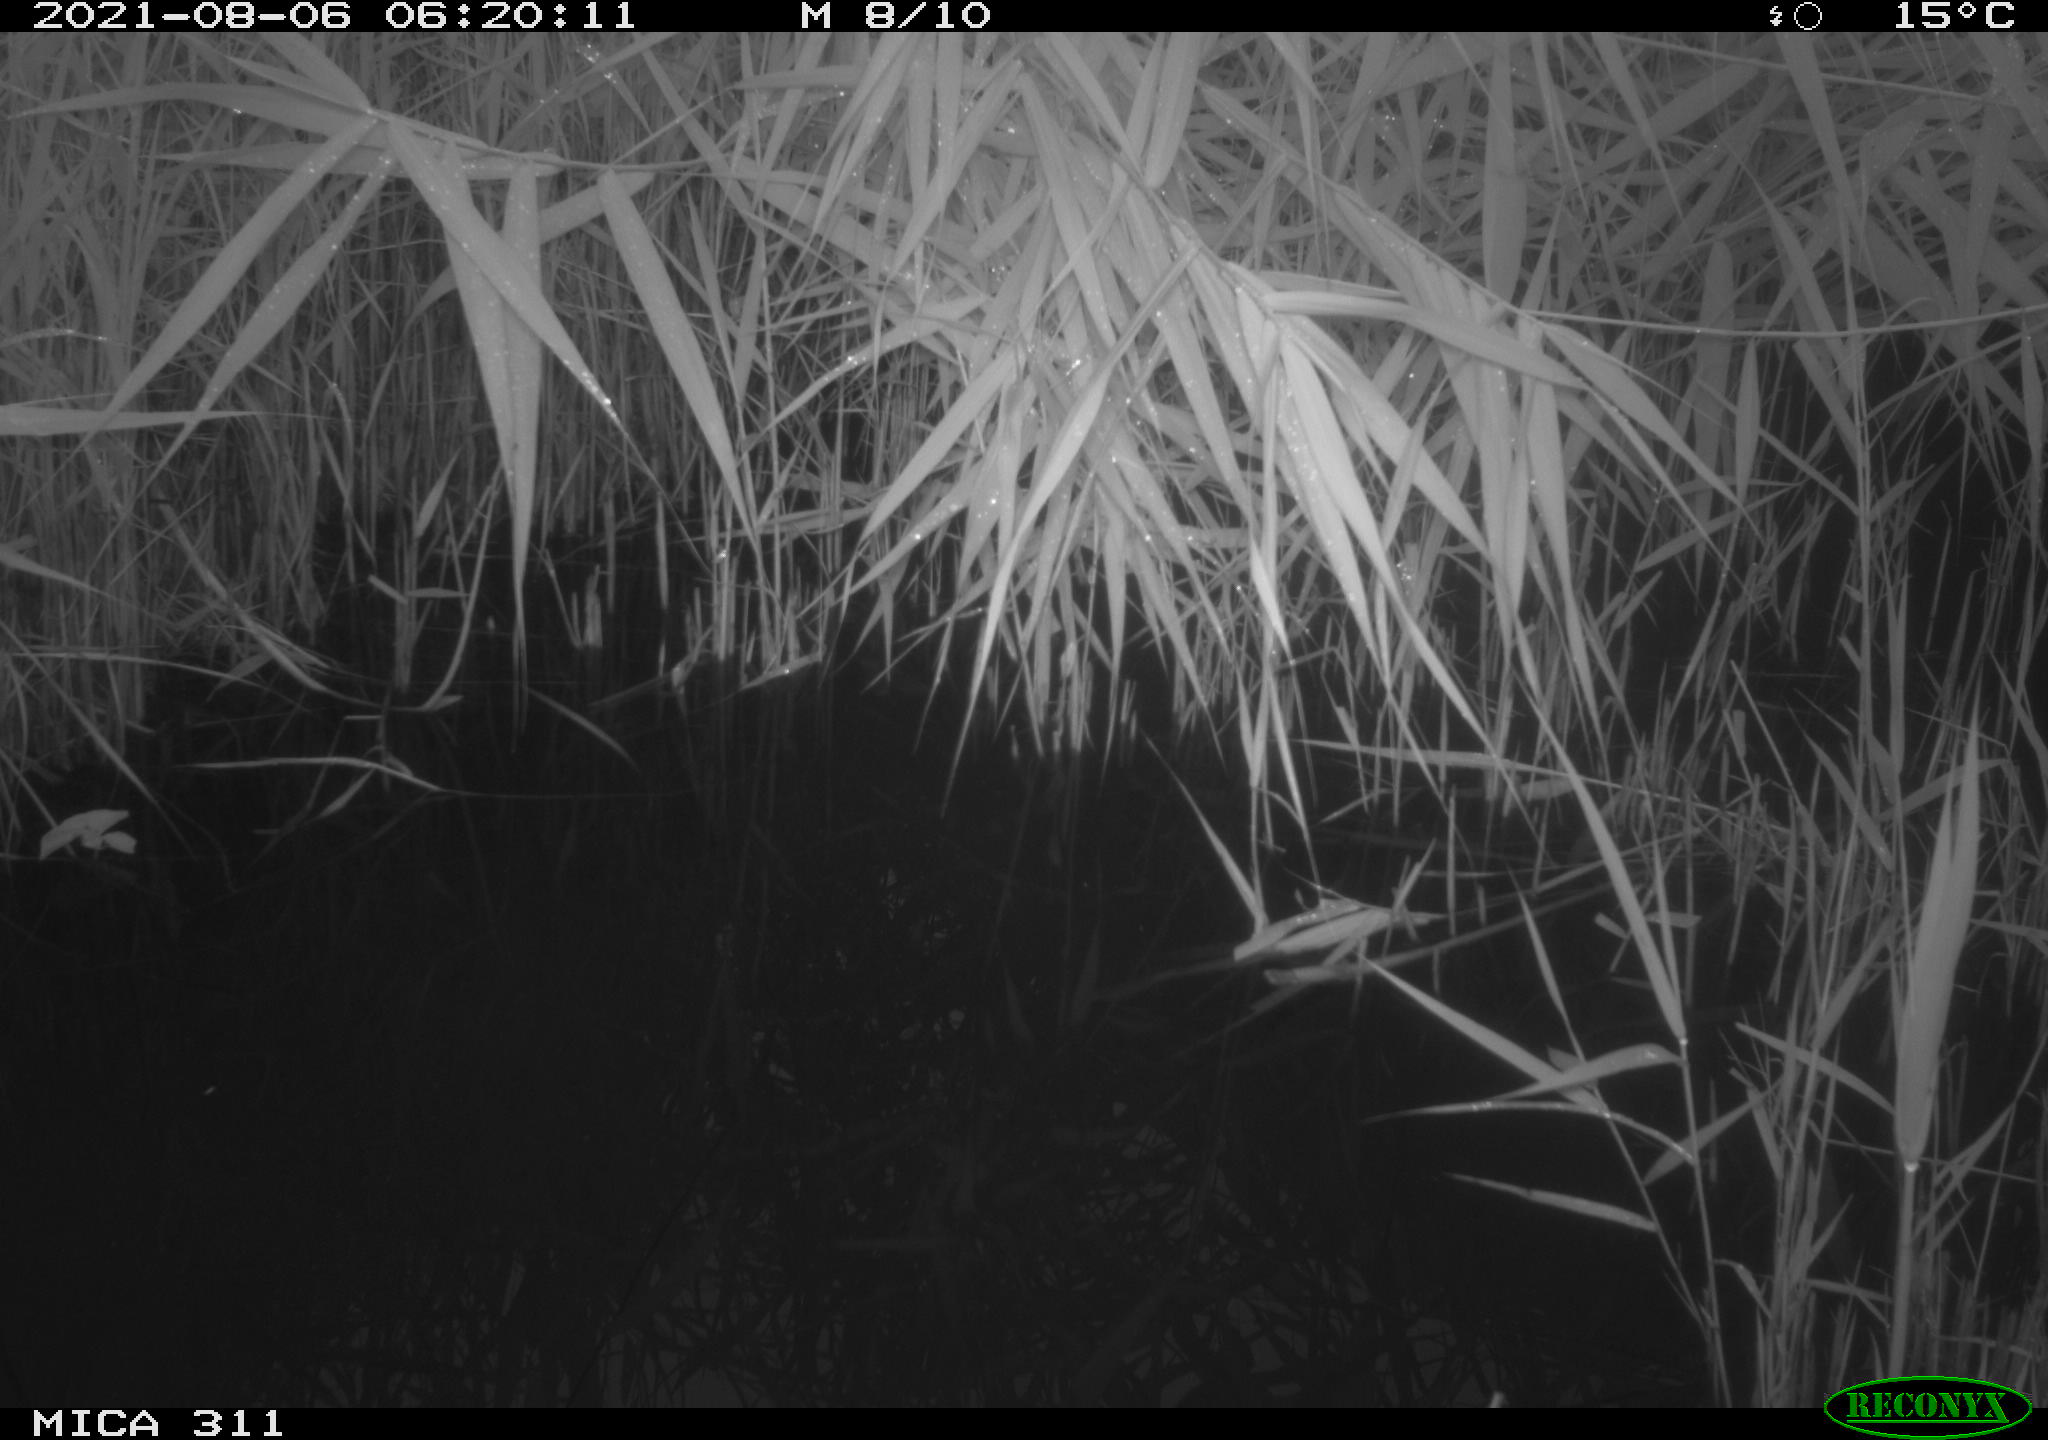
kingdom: Animalia
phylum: Chordata
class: Aves
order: Anseriformes
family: Anatidae
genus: Anas
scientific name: Anas platyrhynchos
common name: Mallard
